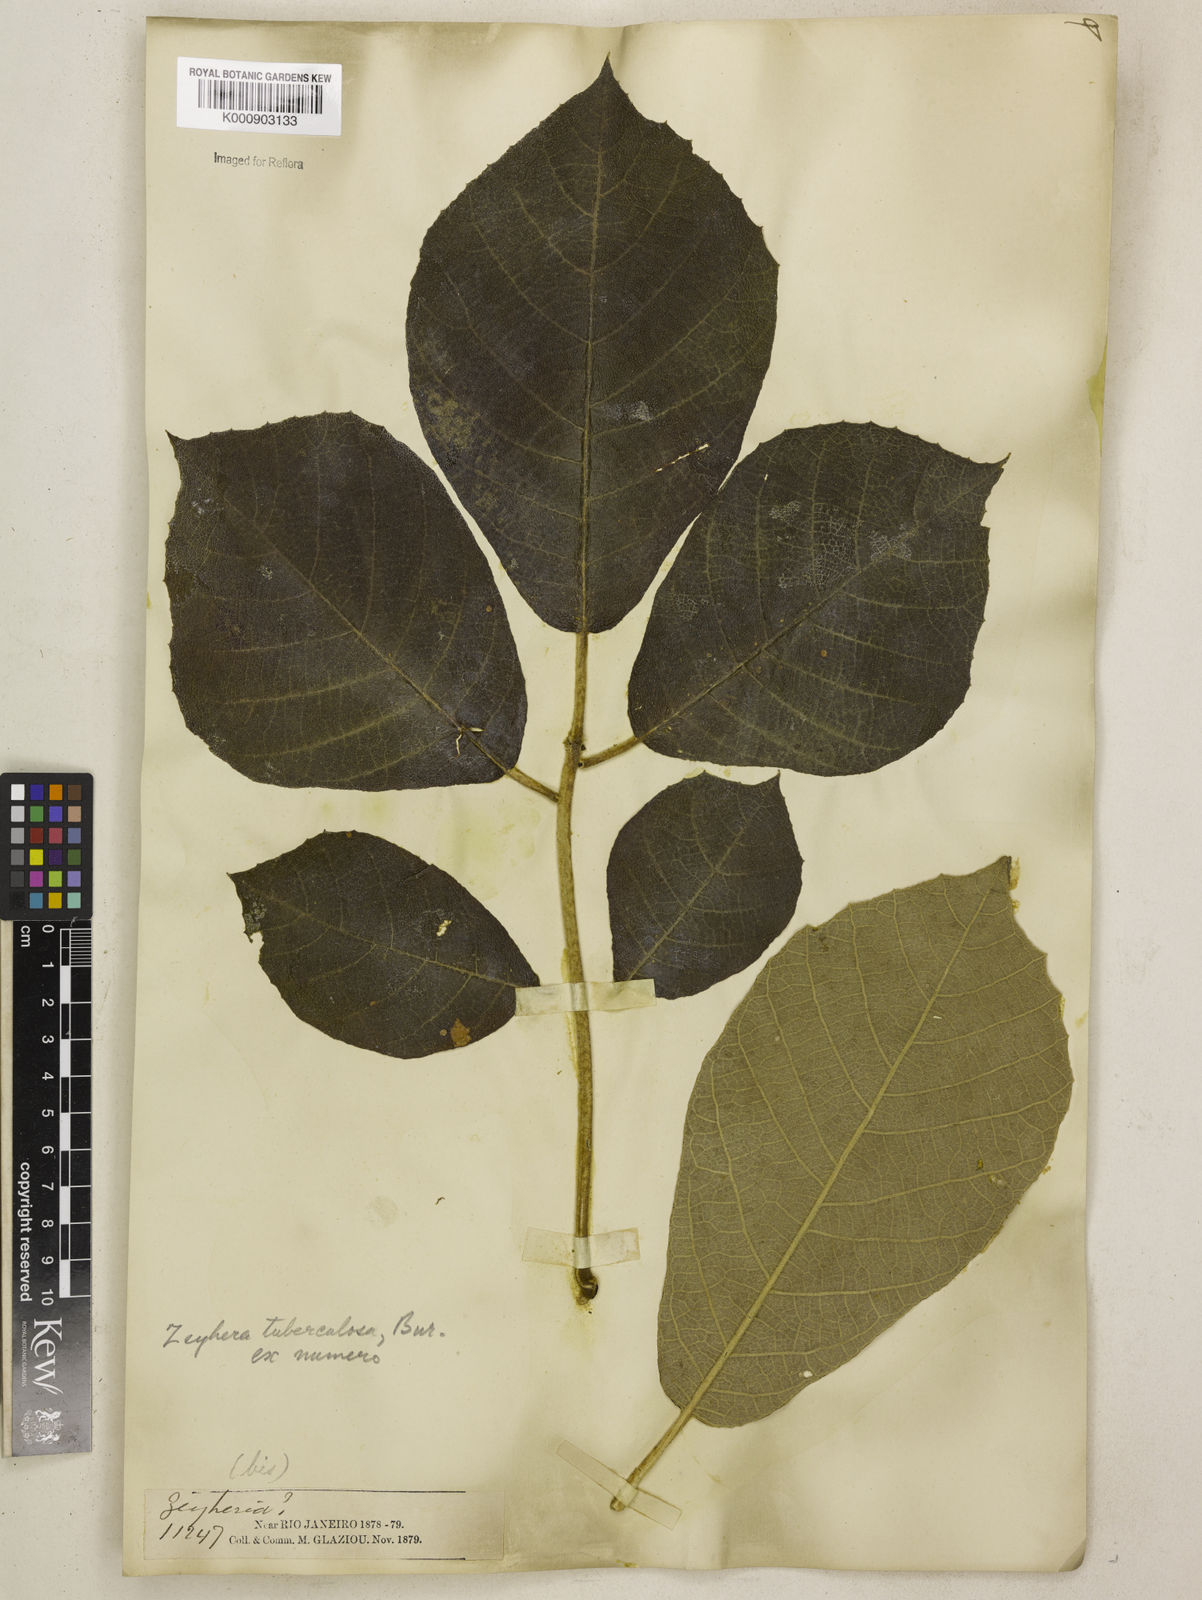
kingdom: Plantae
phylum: Tracheophyta
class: Magnoliopsida
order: Lamiales
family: Bignoniaceae
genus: Zeyheria
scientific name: Zeyheria
